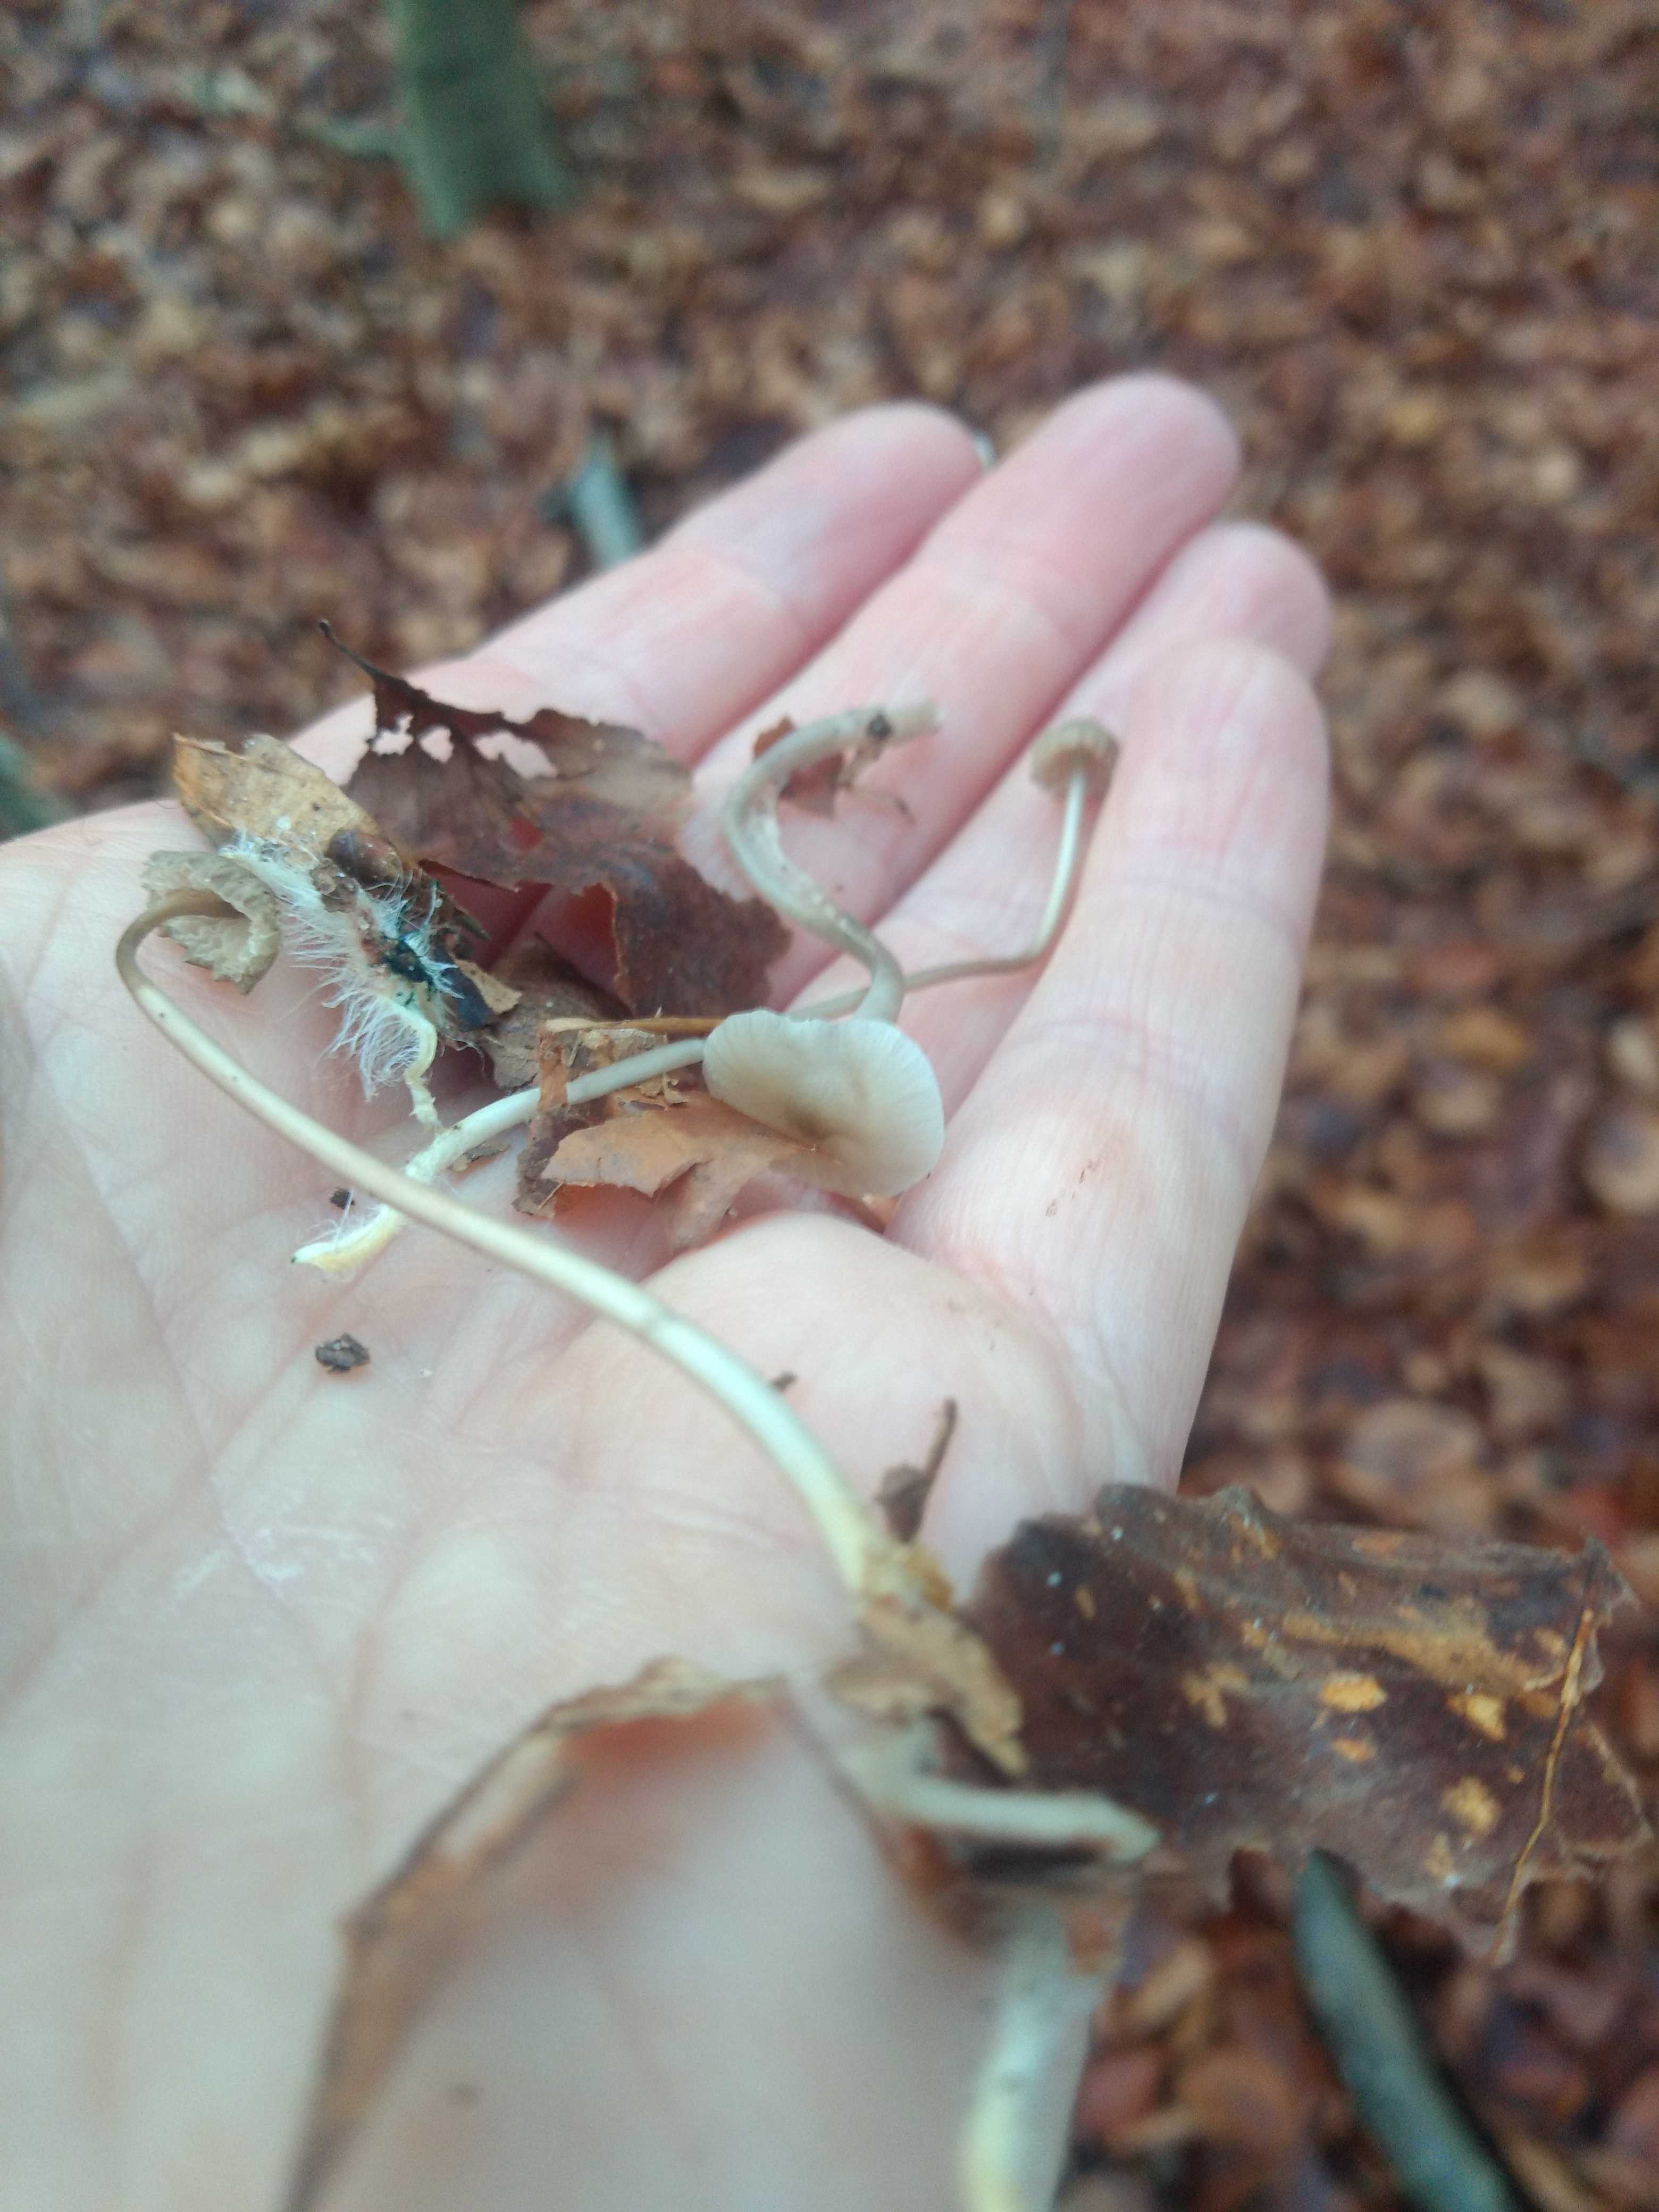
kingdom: Fungi
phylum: Basidiomycota
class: Agaricomycetes
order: Agaricales
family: Mycenaceae
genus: Mycena
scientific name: Mycena vitilis
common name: blankstokket huesvamp
